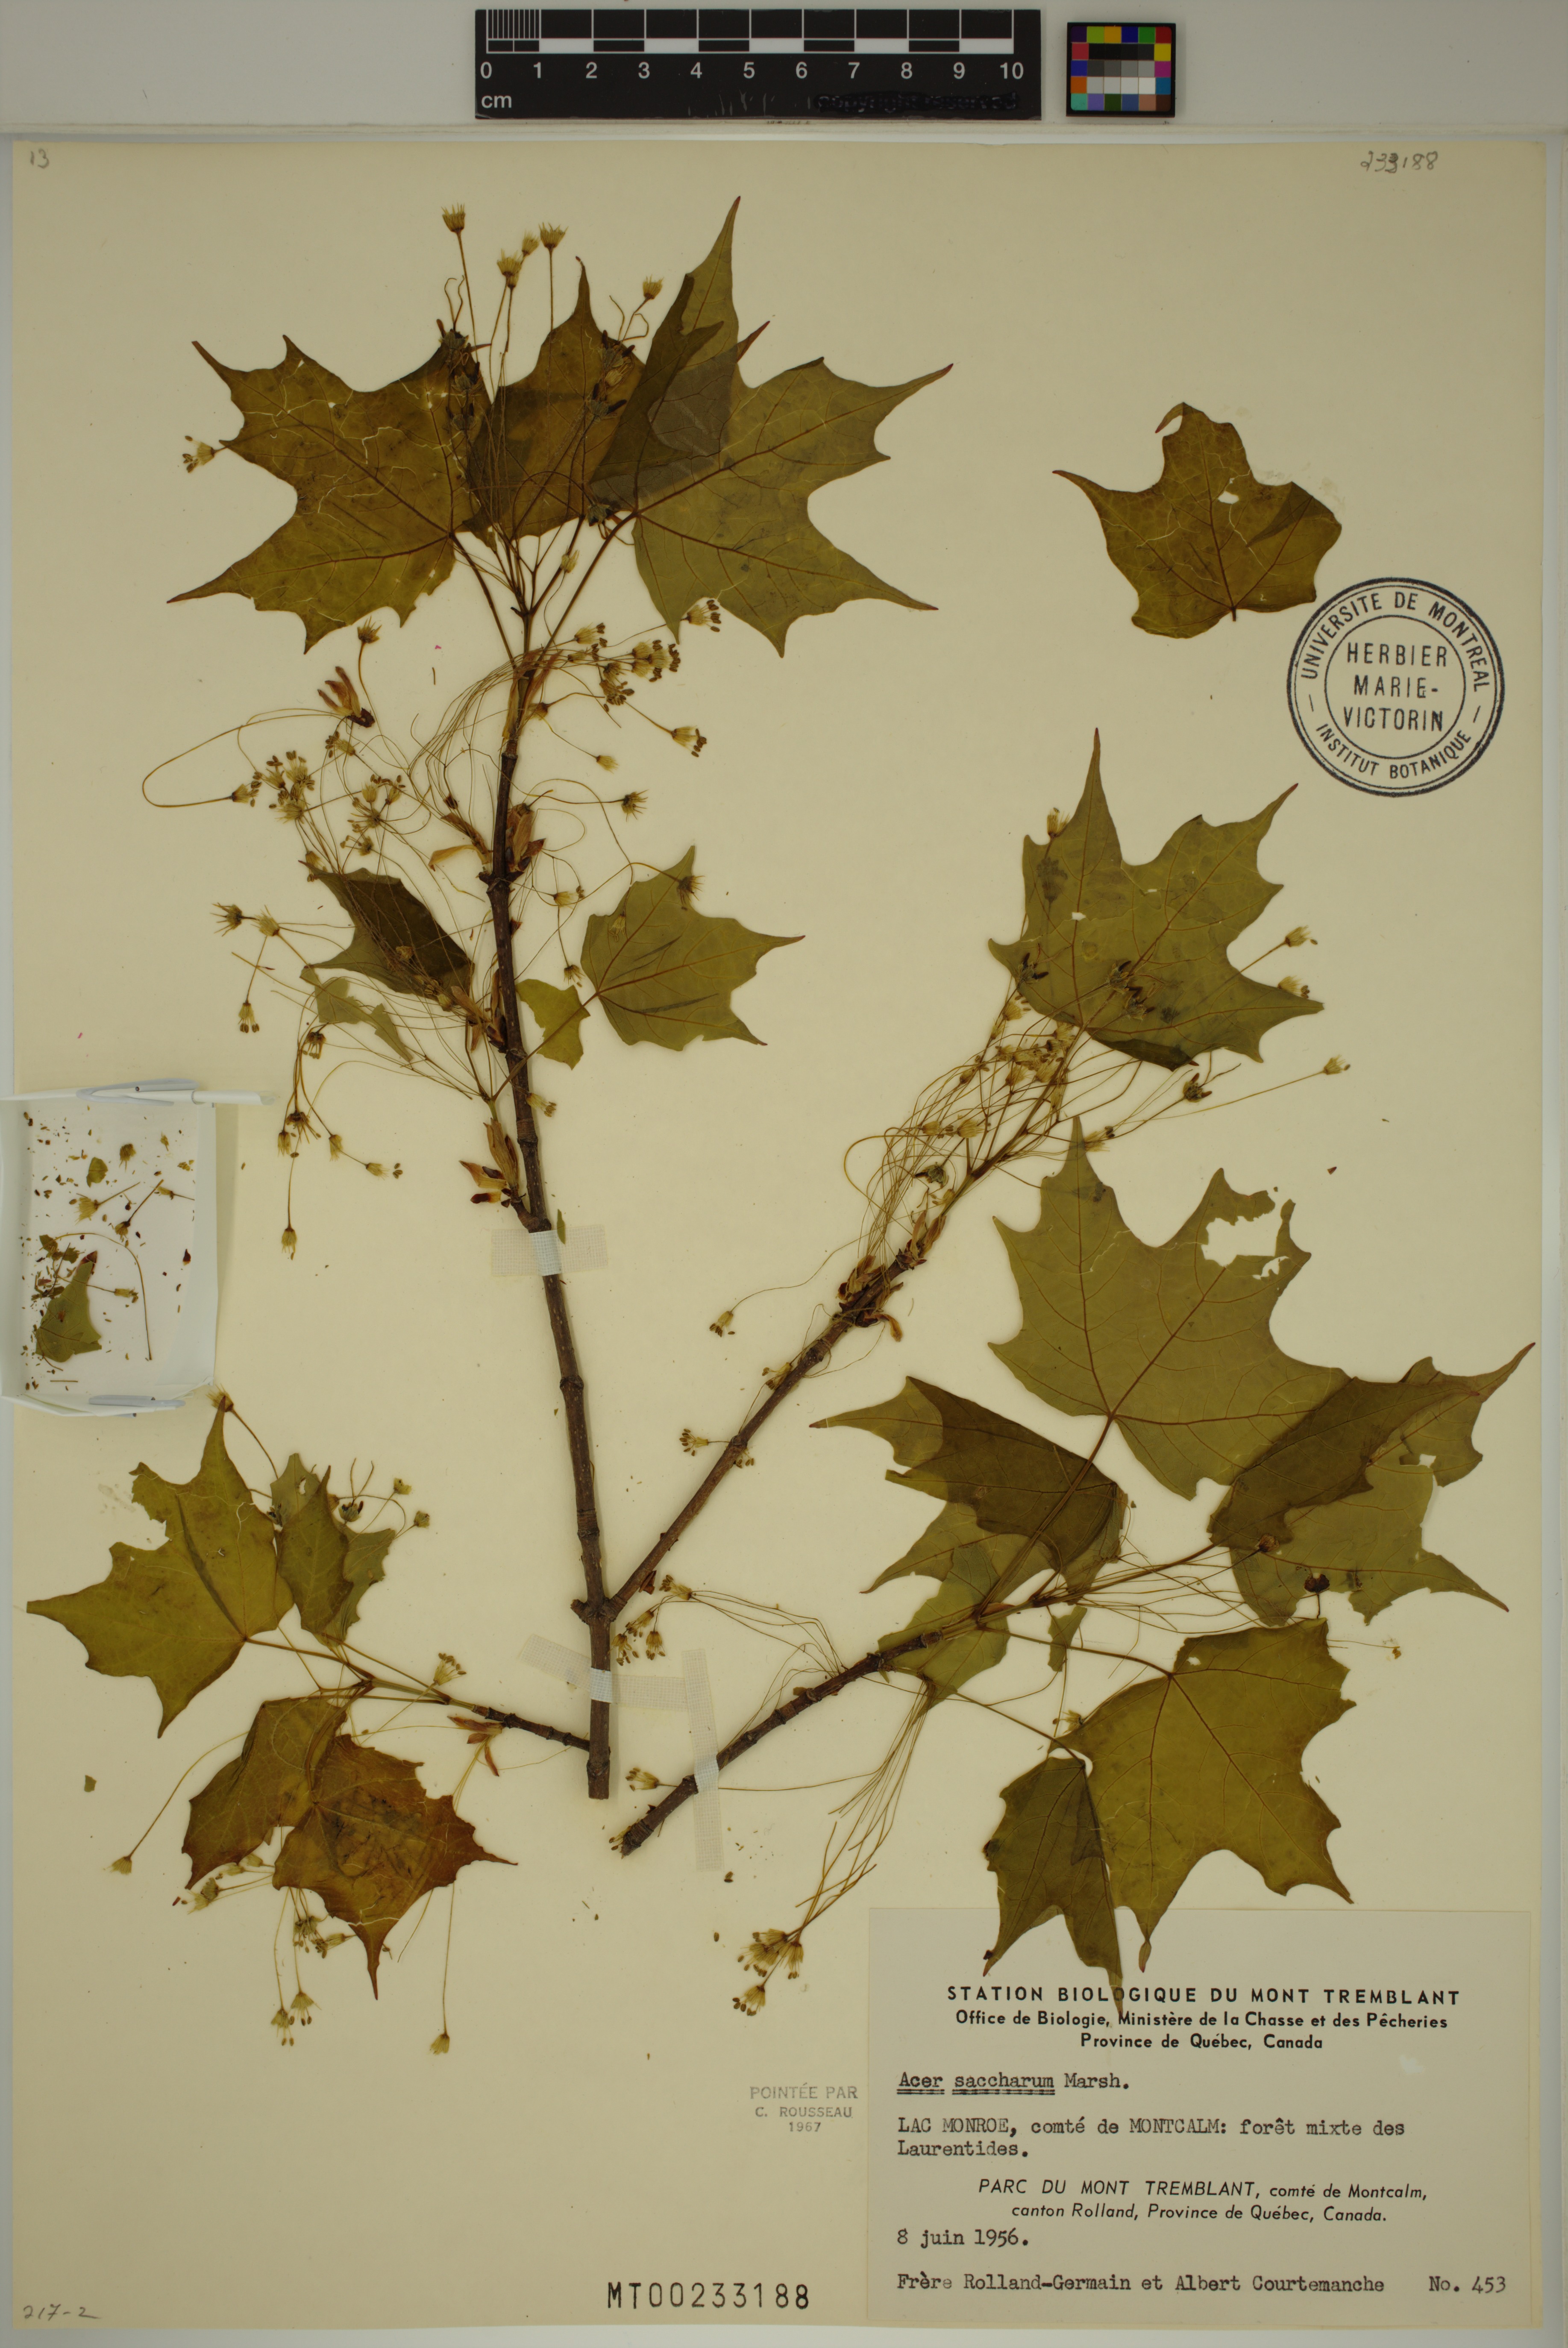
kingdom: Plantae
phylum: Tracheophyta
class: Magnoliopsida
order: Sapindales
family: Sapindaceae
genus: Acer
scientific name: Acer saccharum
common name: Sugar maple
